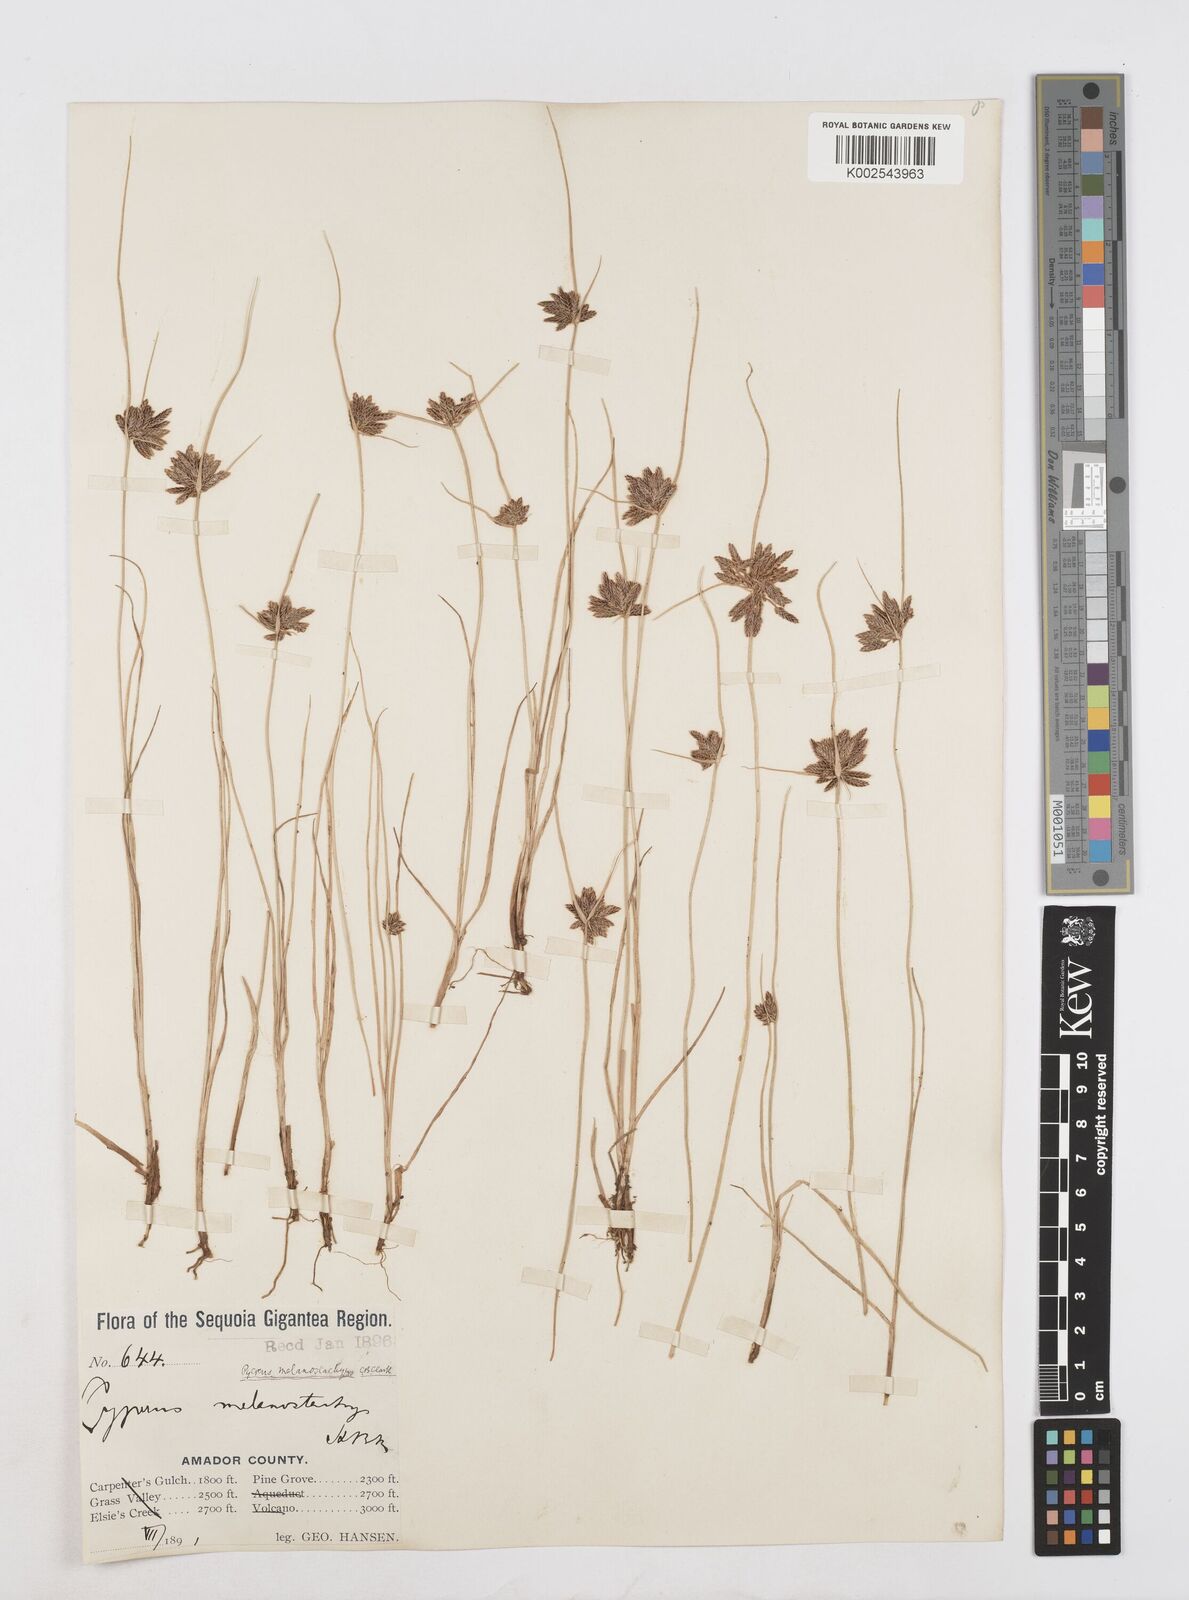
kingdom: Plantae
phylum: Tracheophyta
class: Liliopsida
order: Poales
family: Cyperaceae
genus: Cyperus
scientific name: Cyperus melanostachyus
